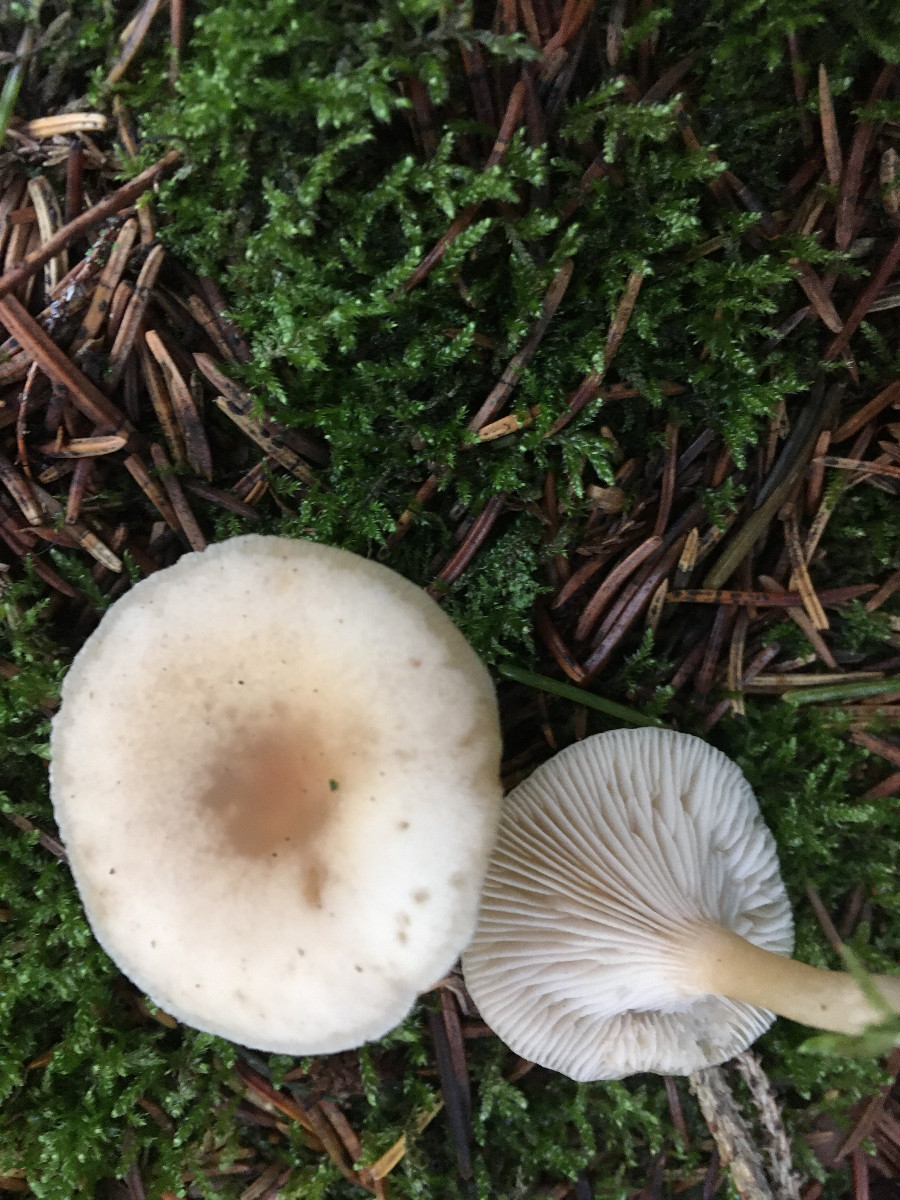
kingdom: Fungi
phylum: Basidiomycota
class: Agaricomycetes
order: Agaricales
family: Tricholomataceae
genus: Clitocybe
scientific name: Clitocybe fragrans
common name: vellugtende tragthat
